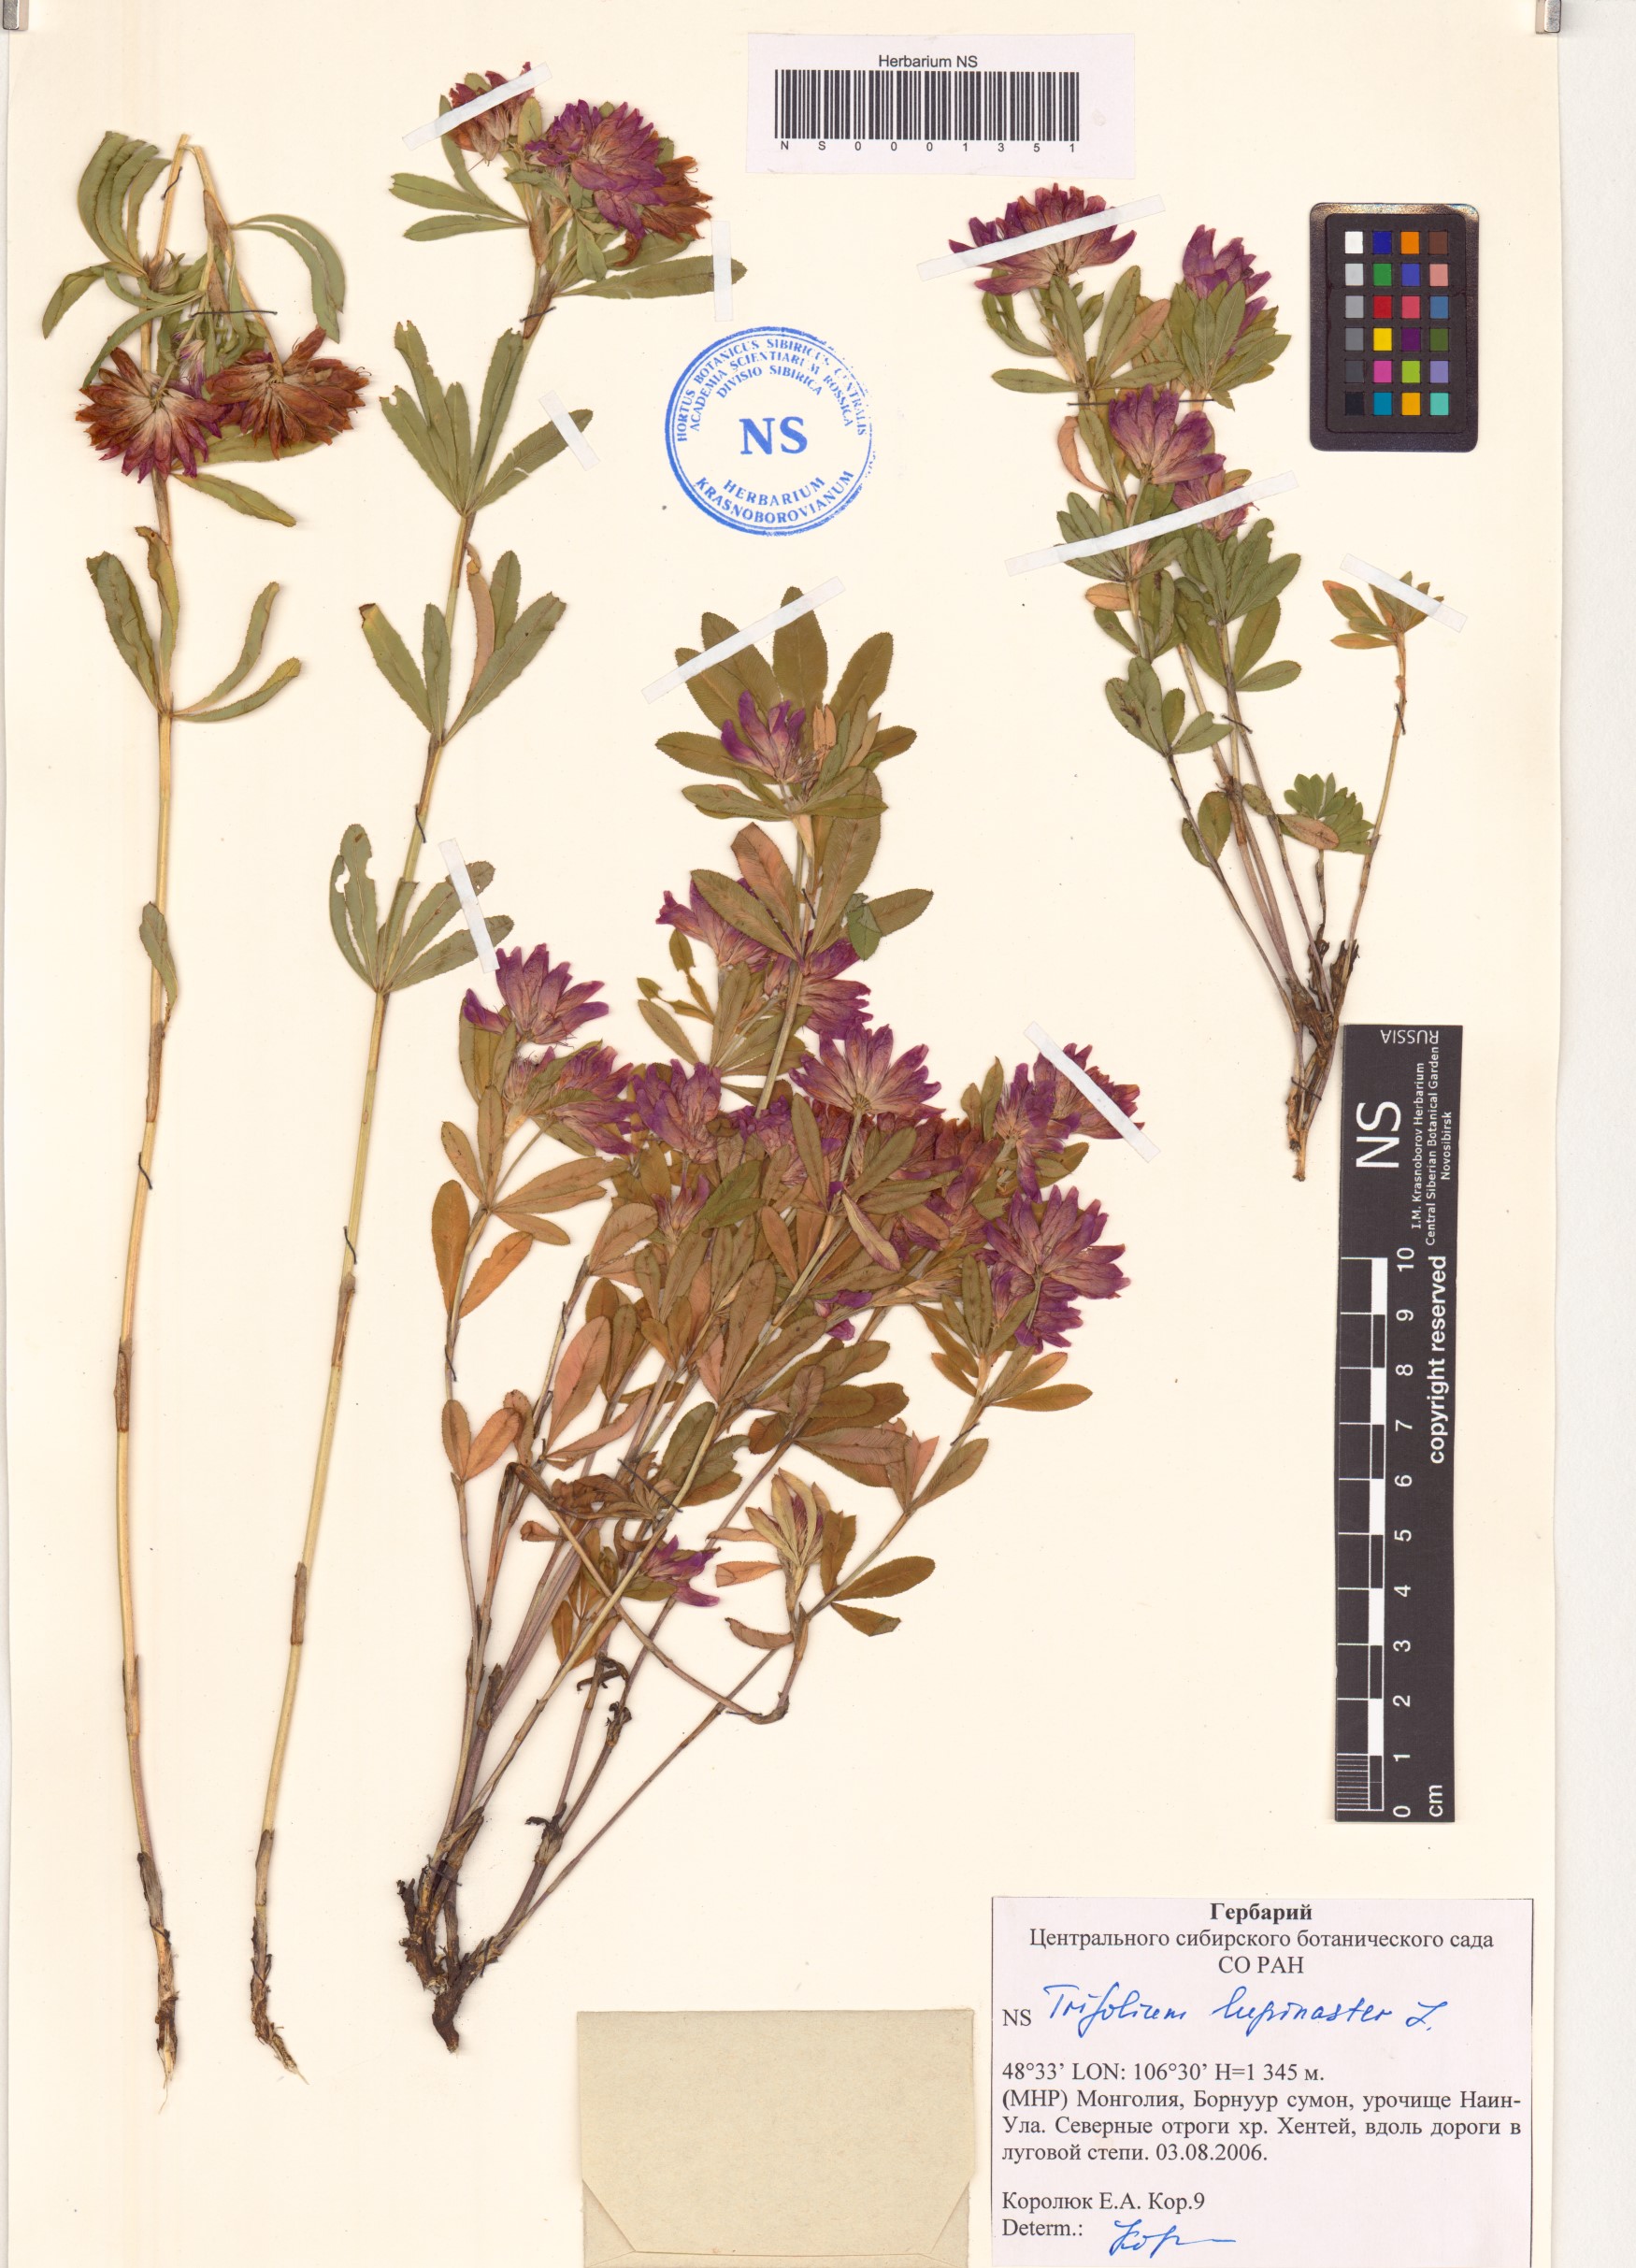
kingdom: Plantae
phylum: Tracheophyta
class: Magnoliopsida
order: Fabales
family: Fabaceae
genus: Trifolium
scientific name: Trifolium lupinaster
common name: Lupine clover
